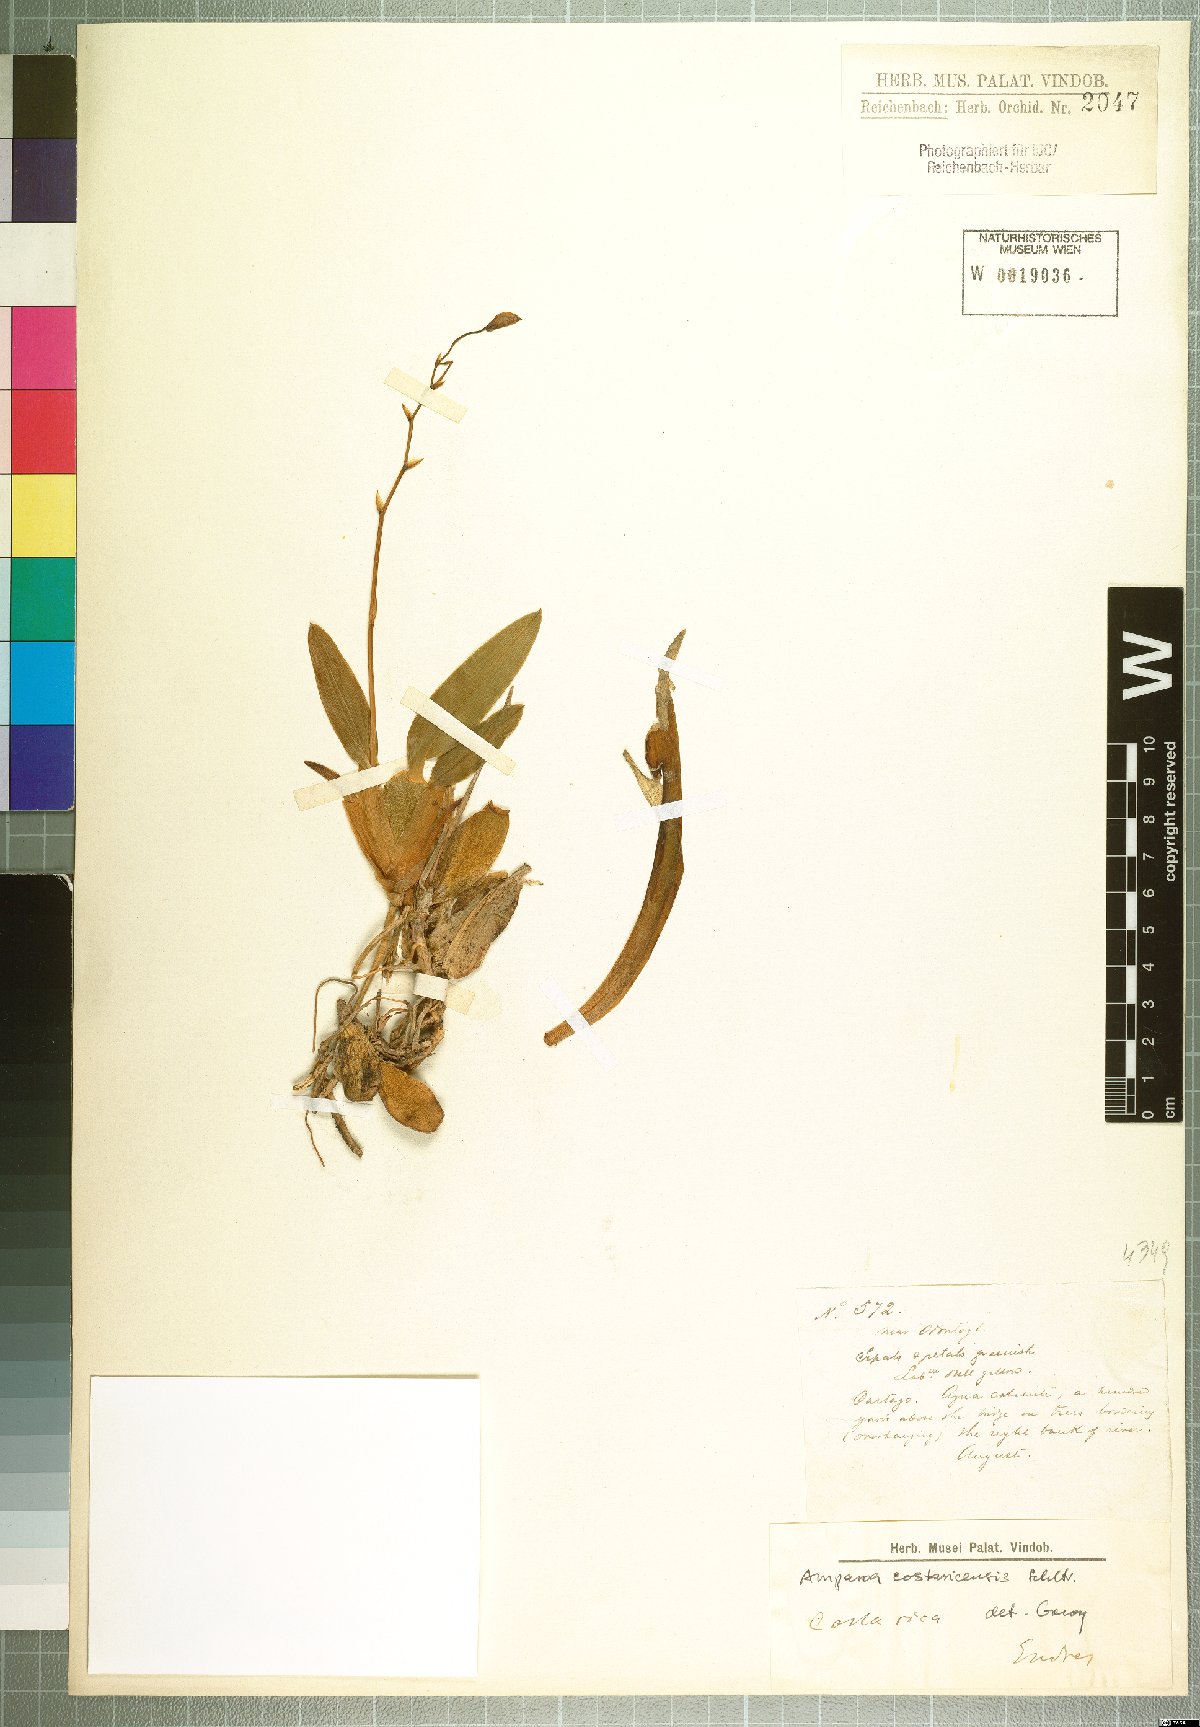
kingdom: Plantae
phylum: Tracheophyta
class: Liliopsida
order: Asparagales
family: Orchidaceae
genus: Rossioglossum
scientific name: Rossioglossum beloglossum
